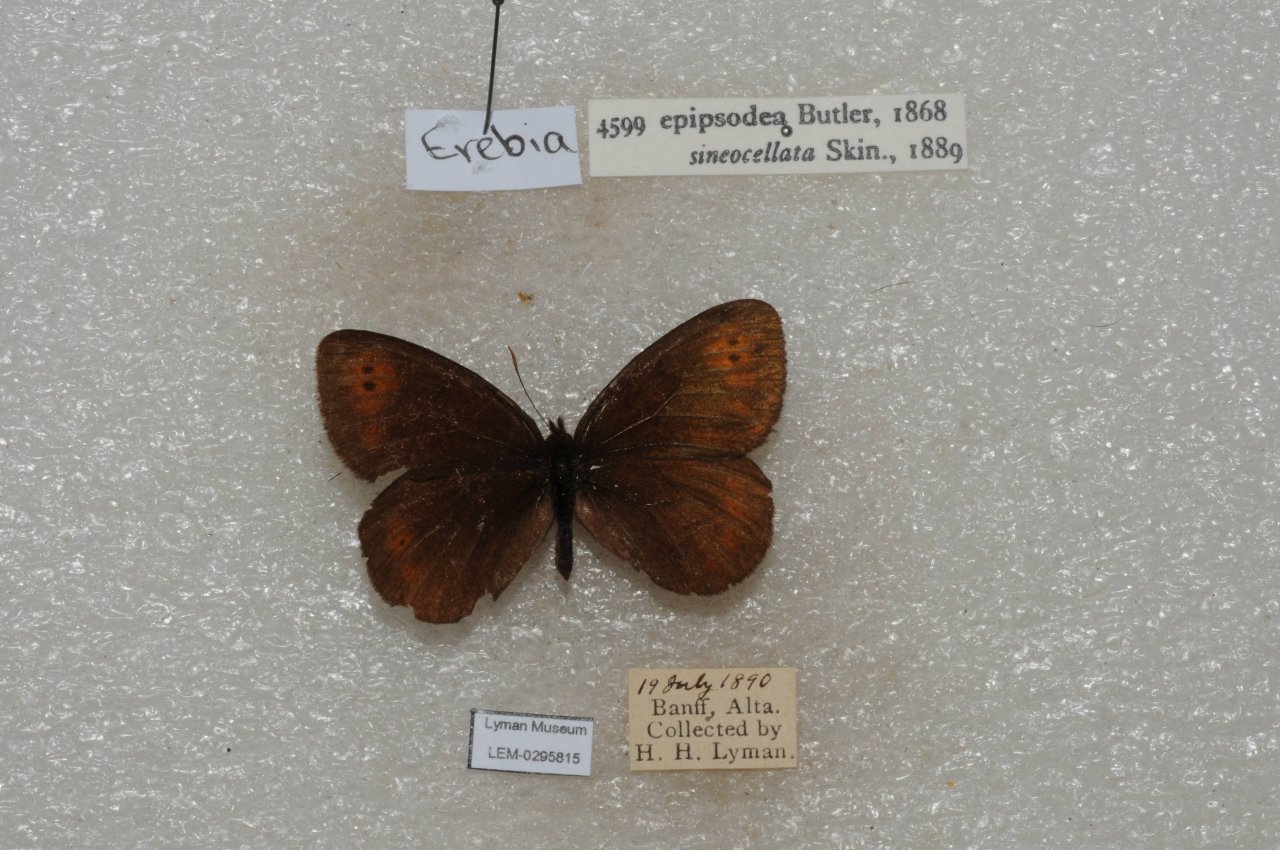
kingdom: Animalia
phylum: Arthropoda
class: Insecta
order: Lepidoptera
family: Nymphalidae
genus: Erebia
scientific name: Erebia epipsodea
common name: Common Alpine
